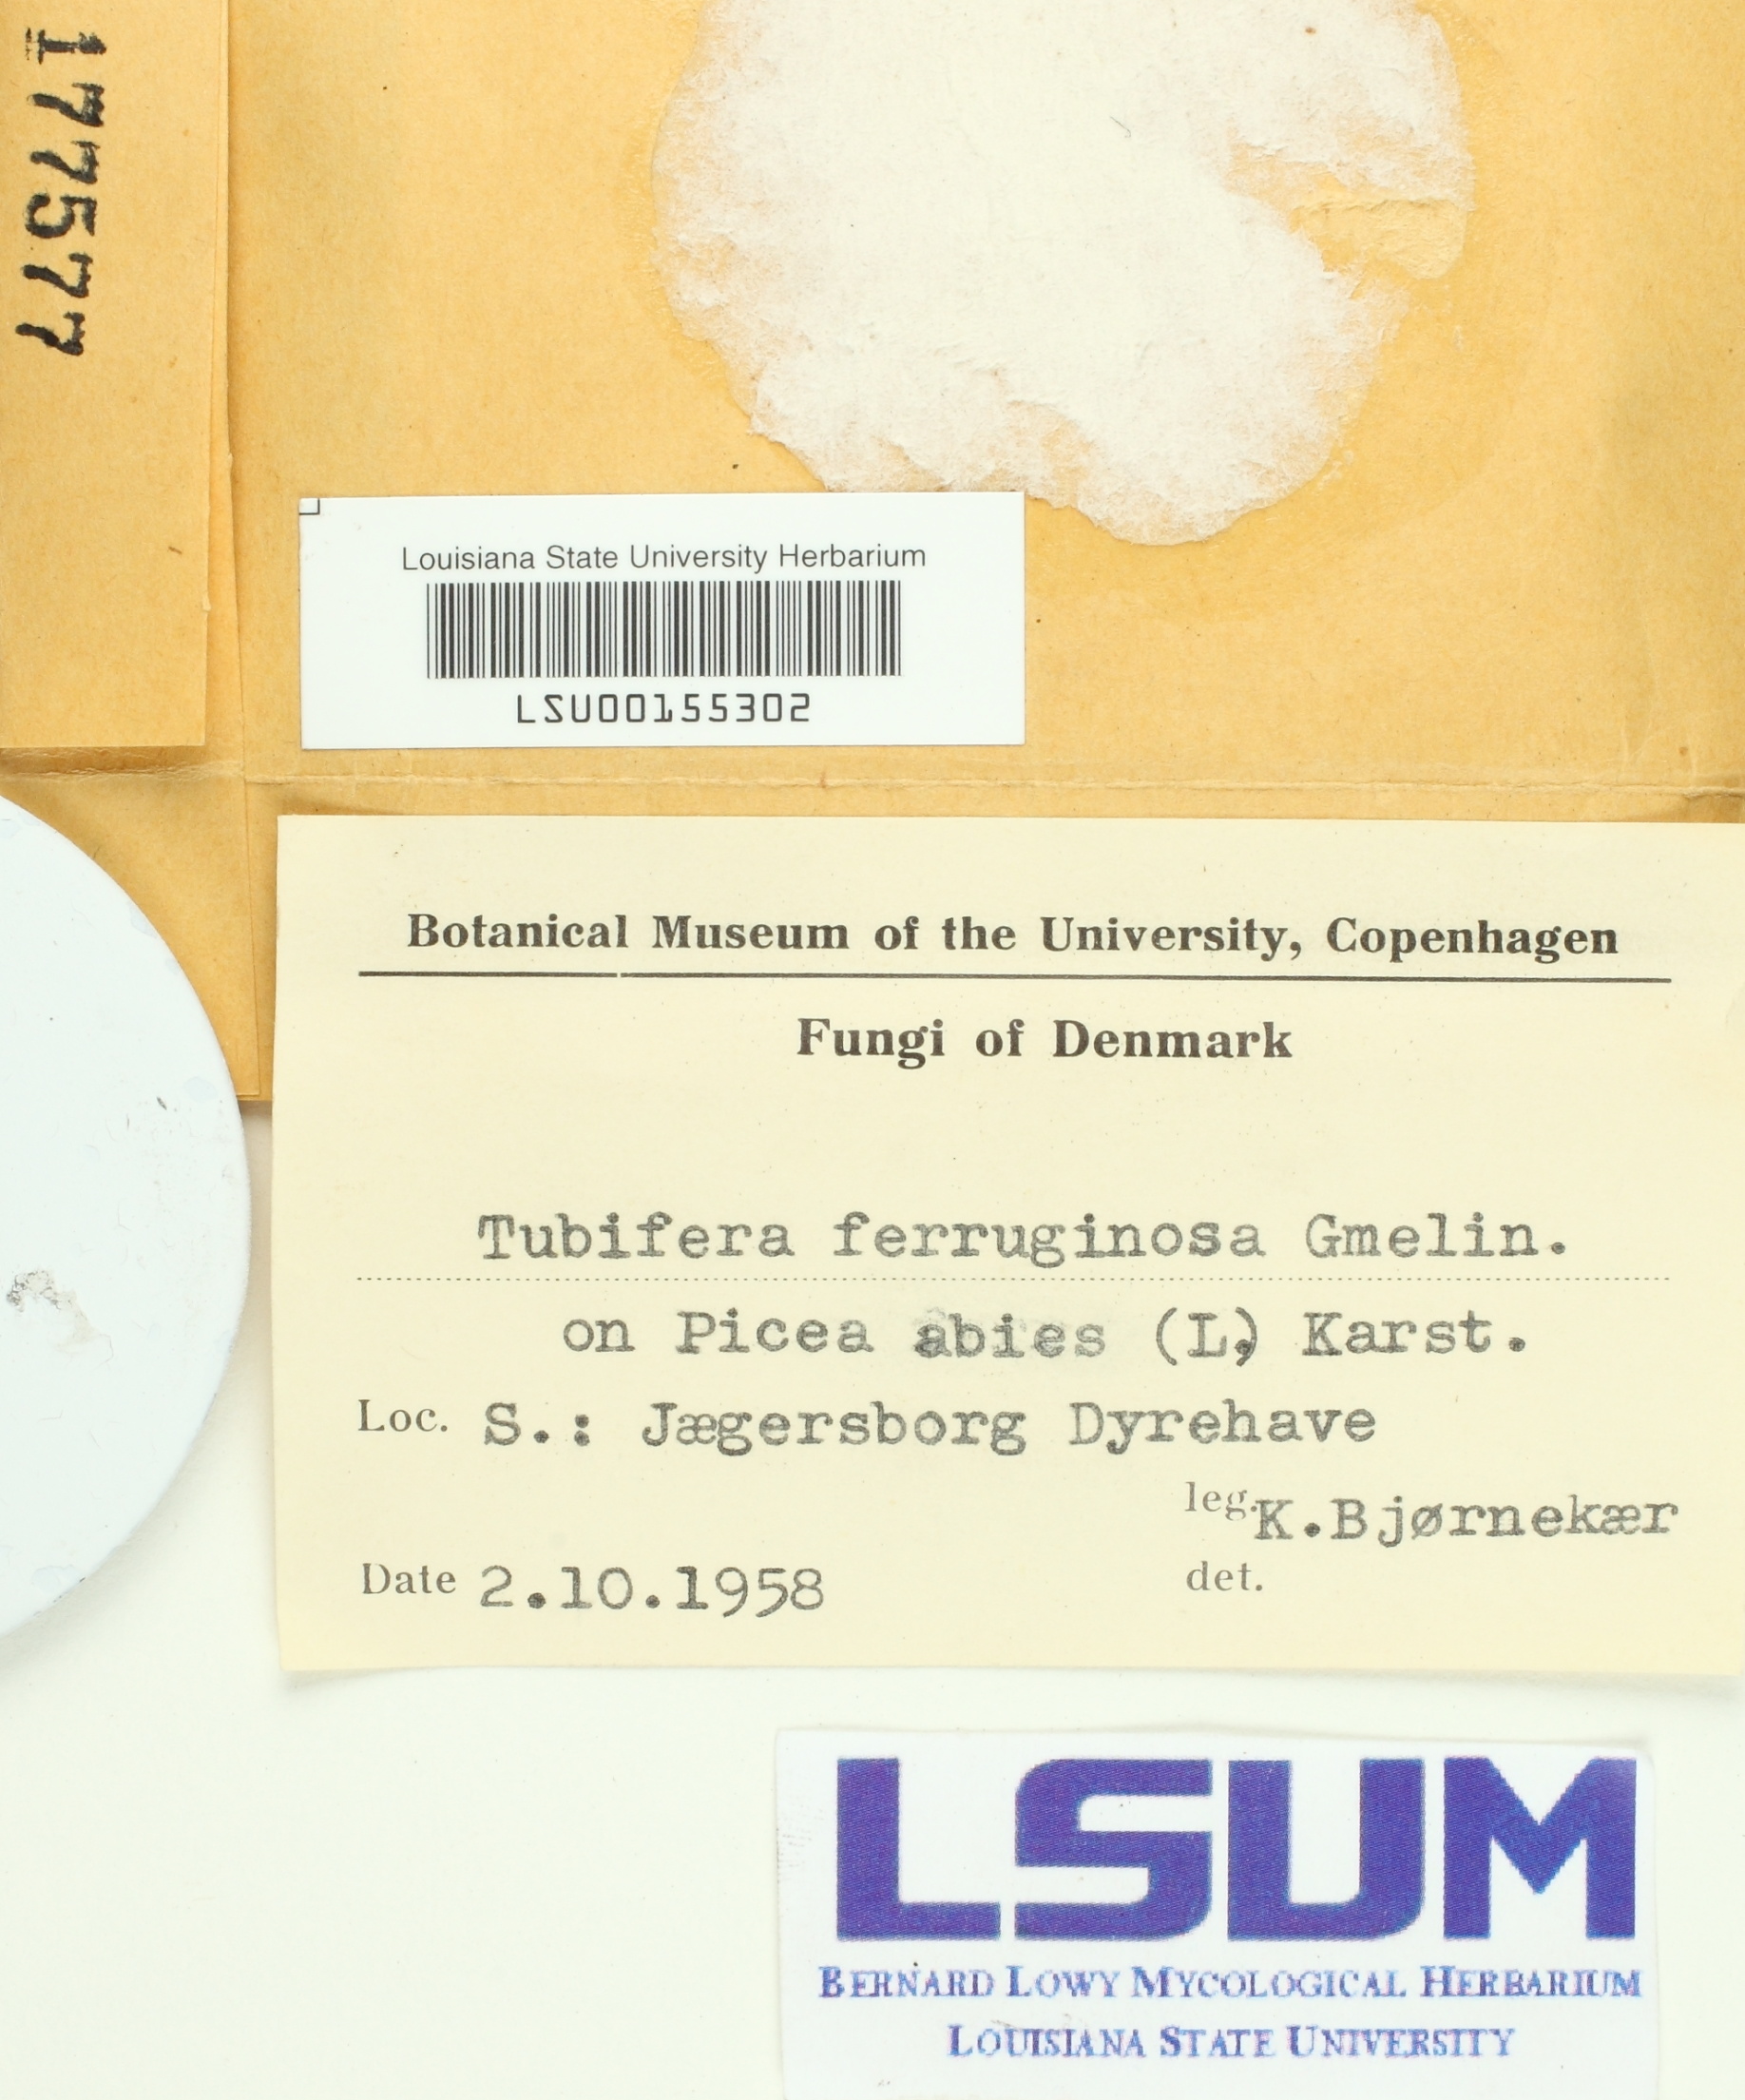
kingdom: Protozoa
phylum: Mycetozoa
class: Myxomycetes
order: Cribrariales
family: Tubiferaceae
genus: Tubifera
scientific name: Tubifera ferruginosa
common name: Red raspberry slime mold
